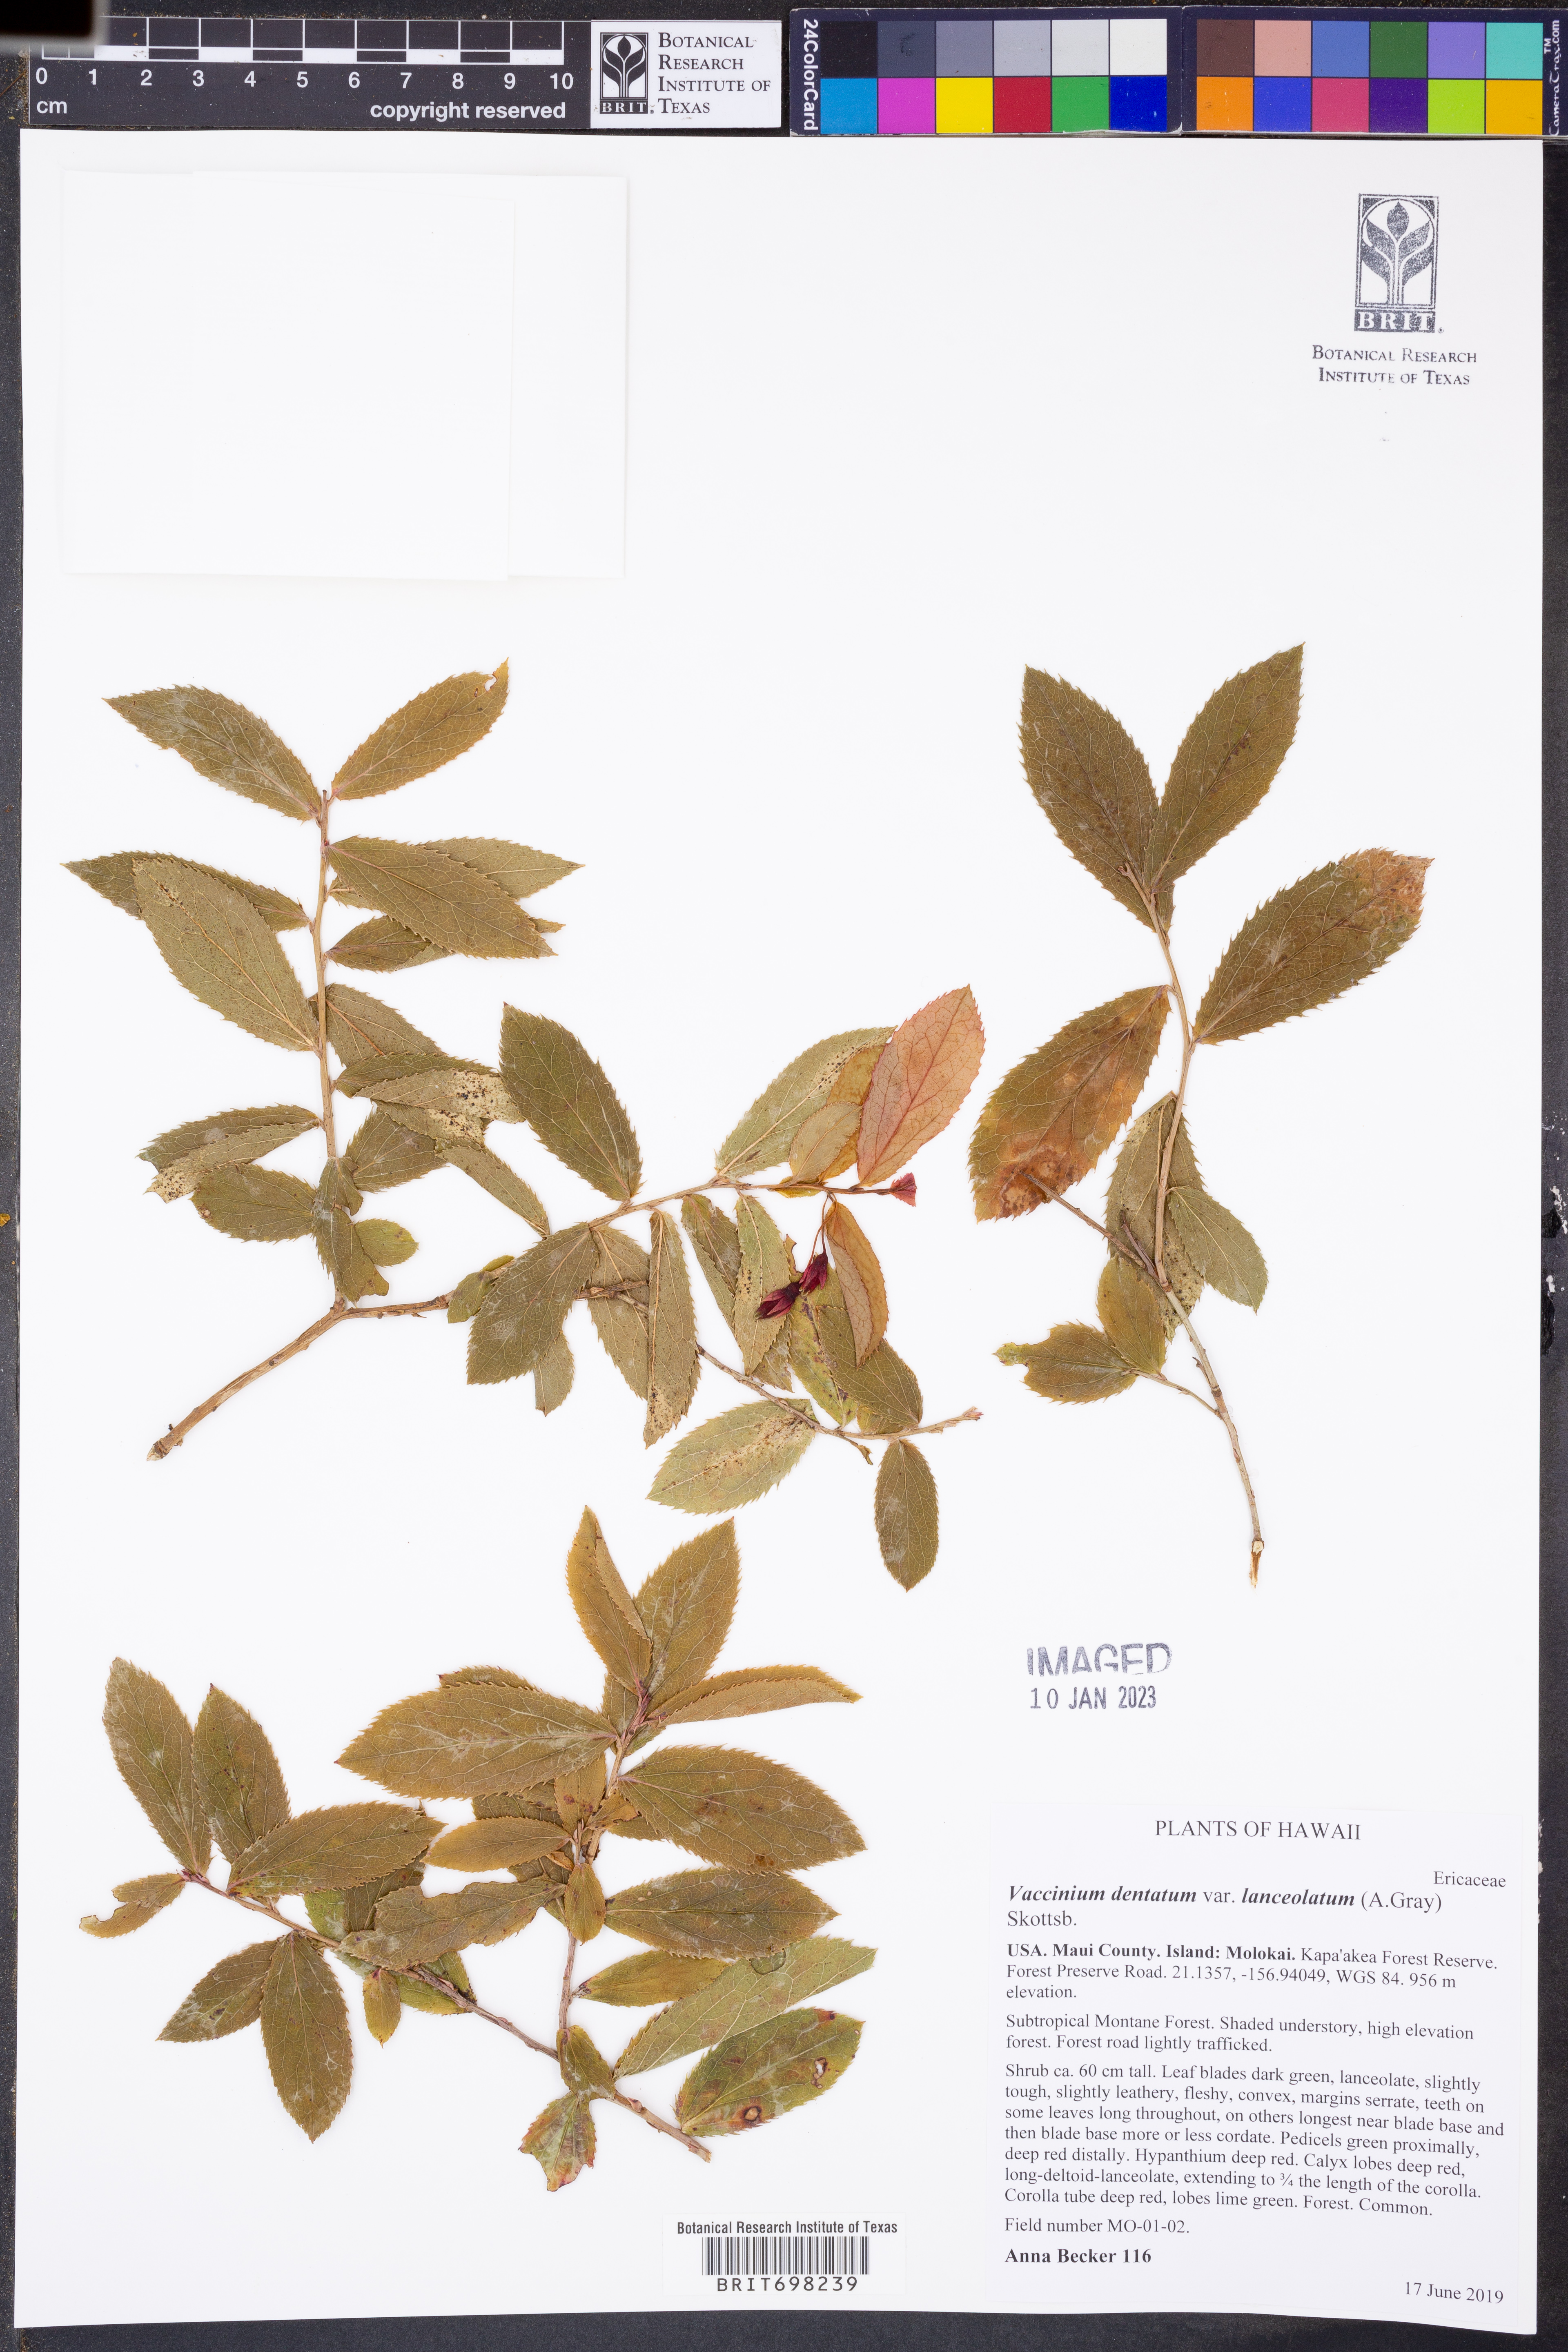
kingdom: Plantae
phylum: Tracheophyta
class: Magnoliopsida
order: Ericales
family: Ericaceae
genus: Vaccinium
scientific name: Vaccinium dentatum
